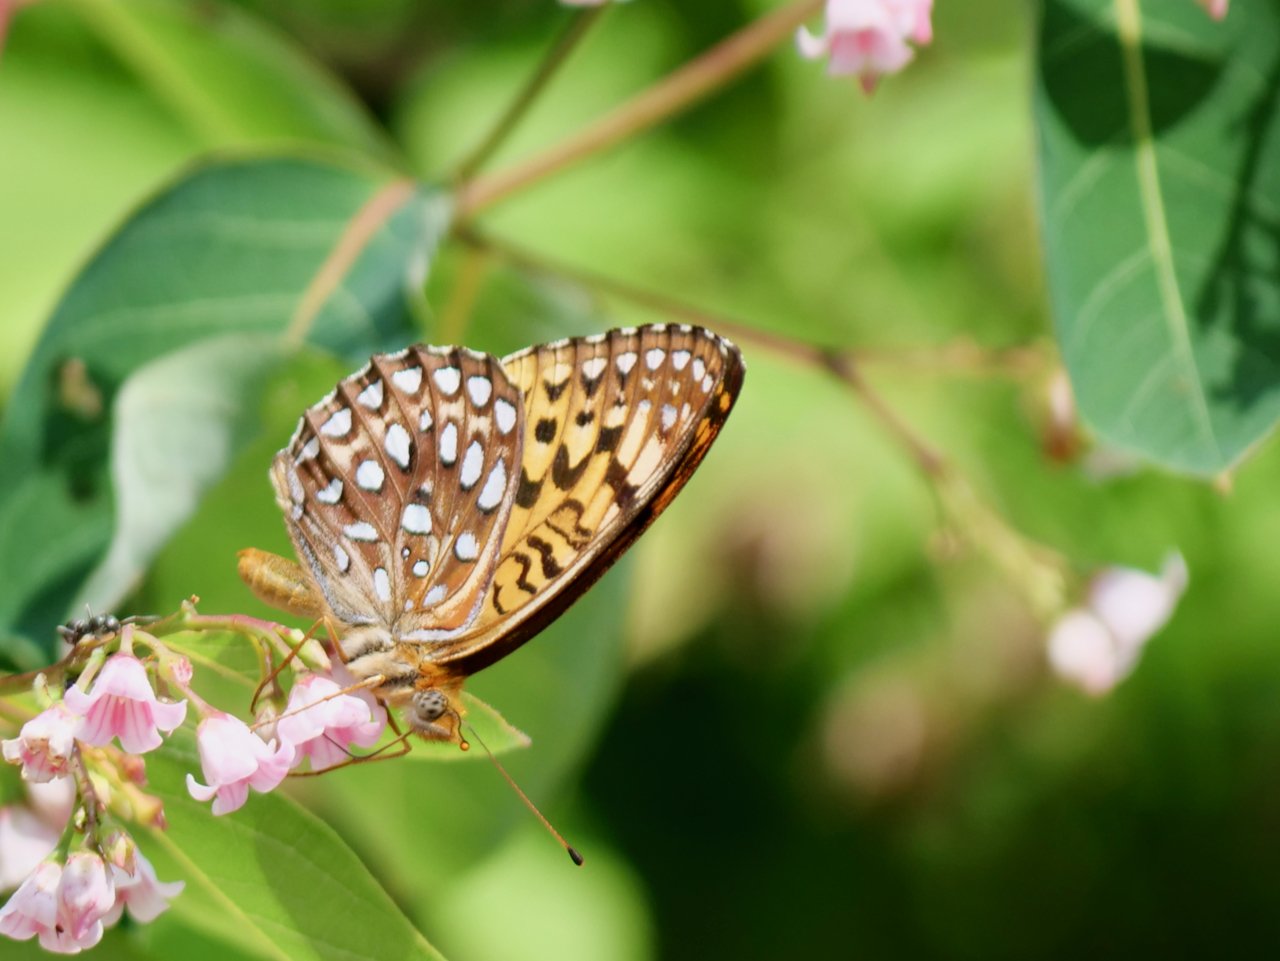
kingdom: Animalia
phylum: Arthropoda
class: Insecta
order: Lepidoptera
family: Nymphalidae
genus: Speyeria
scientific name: Speyeria atlantis
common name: Atlantis Fritillary
